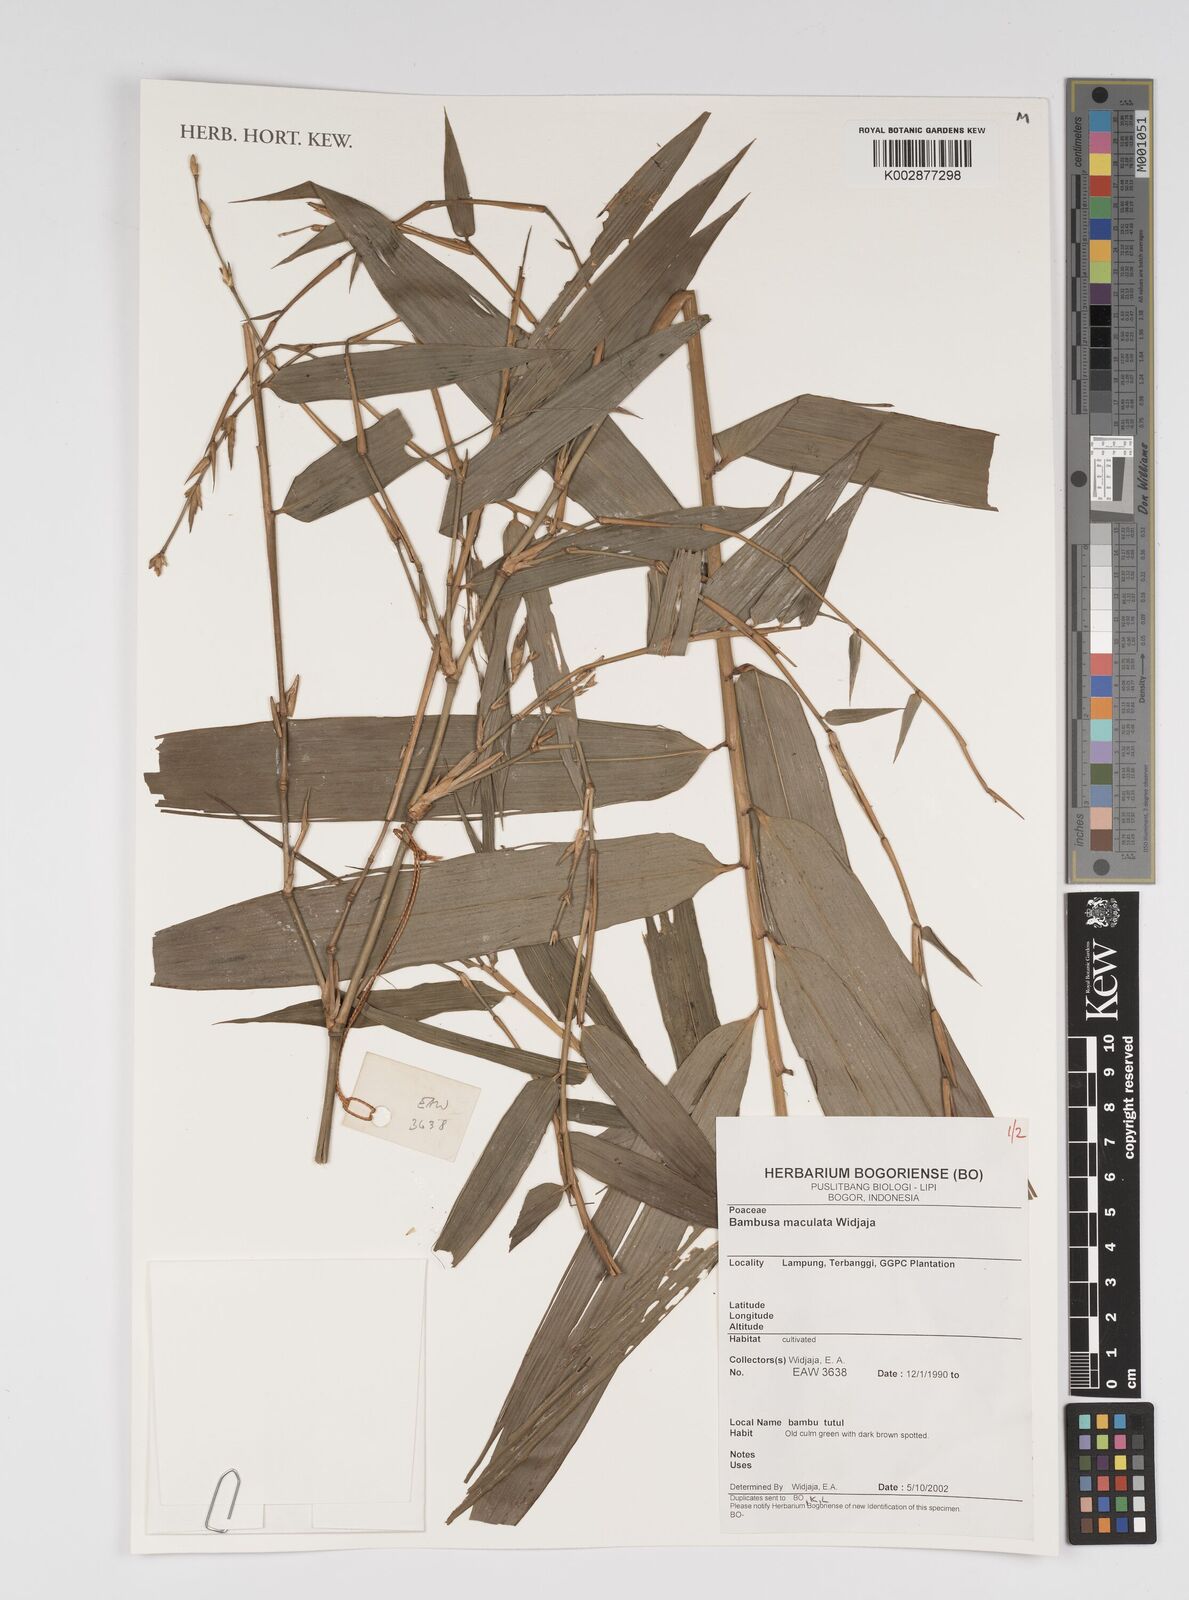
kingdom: Plantae
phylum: Tracheophyta
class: Liliopsida
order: Poales
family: Poaceae
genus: Bambusa
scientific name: Bambusa maculata
